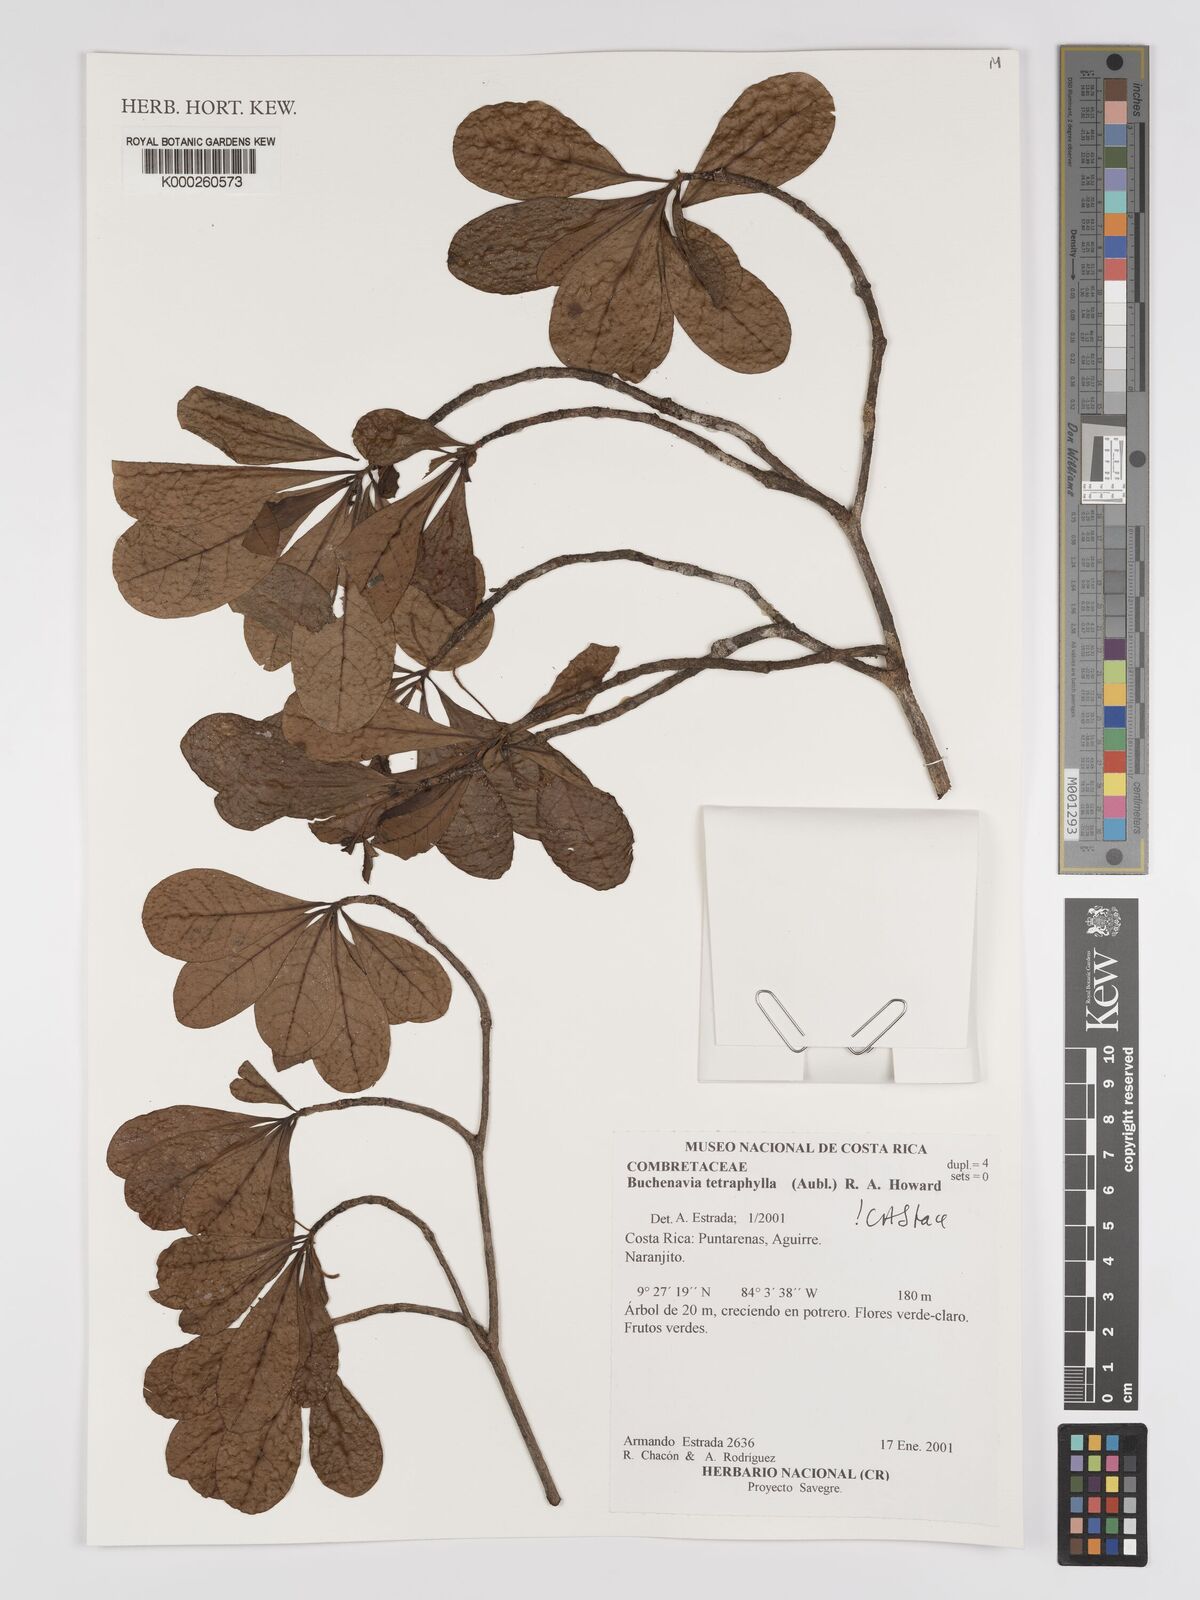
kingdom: Plantae
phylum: Tracheophyta
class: Magnoliopsida
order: Myrtales
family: Combretaceae
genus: Terminalia
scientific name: Terminalia tetraphylla
